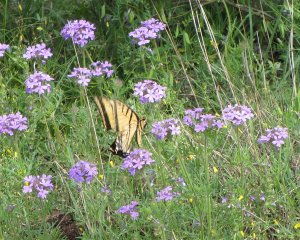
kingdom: Animalia
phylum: Arthropoda
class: Insecta
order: Lepidoptera
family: Papilionidae
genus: Papilio
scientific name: Papilio multicaudata
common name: Two-tailed Swallowtail
